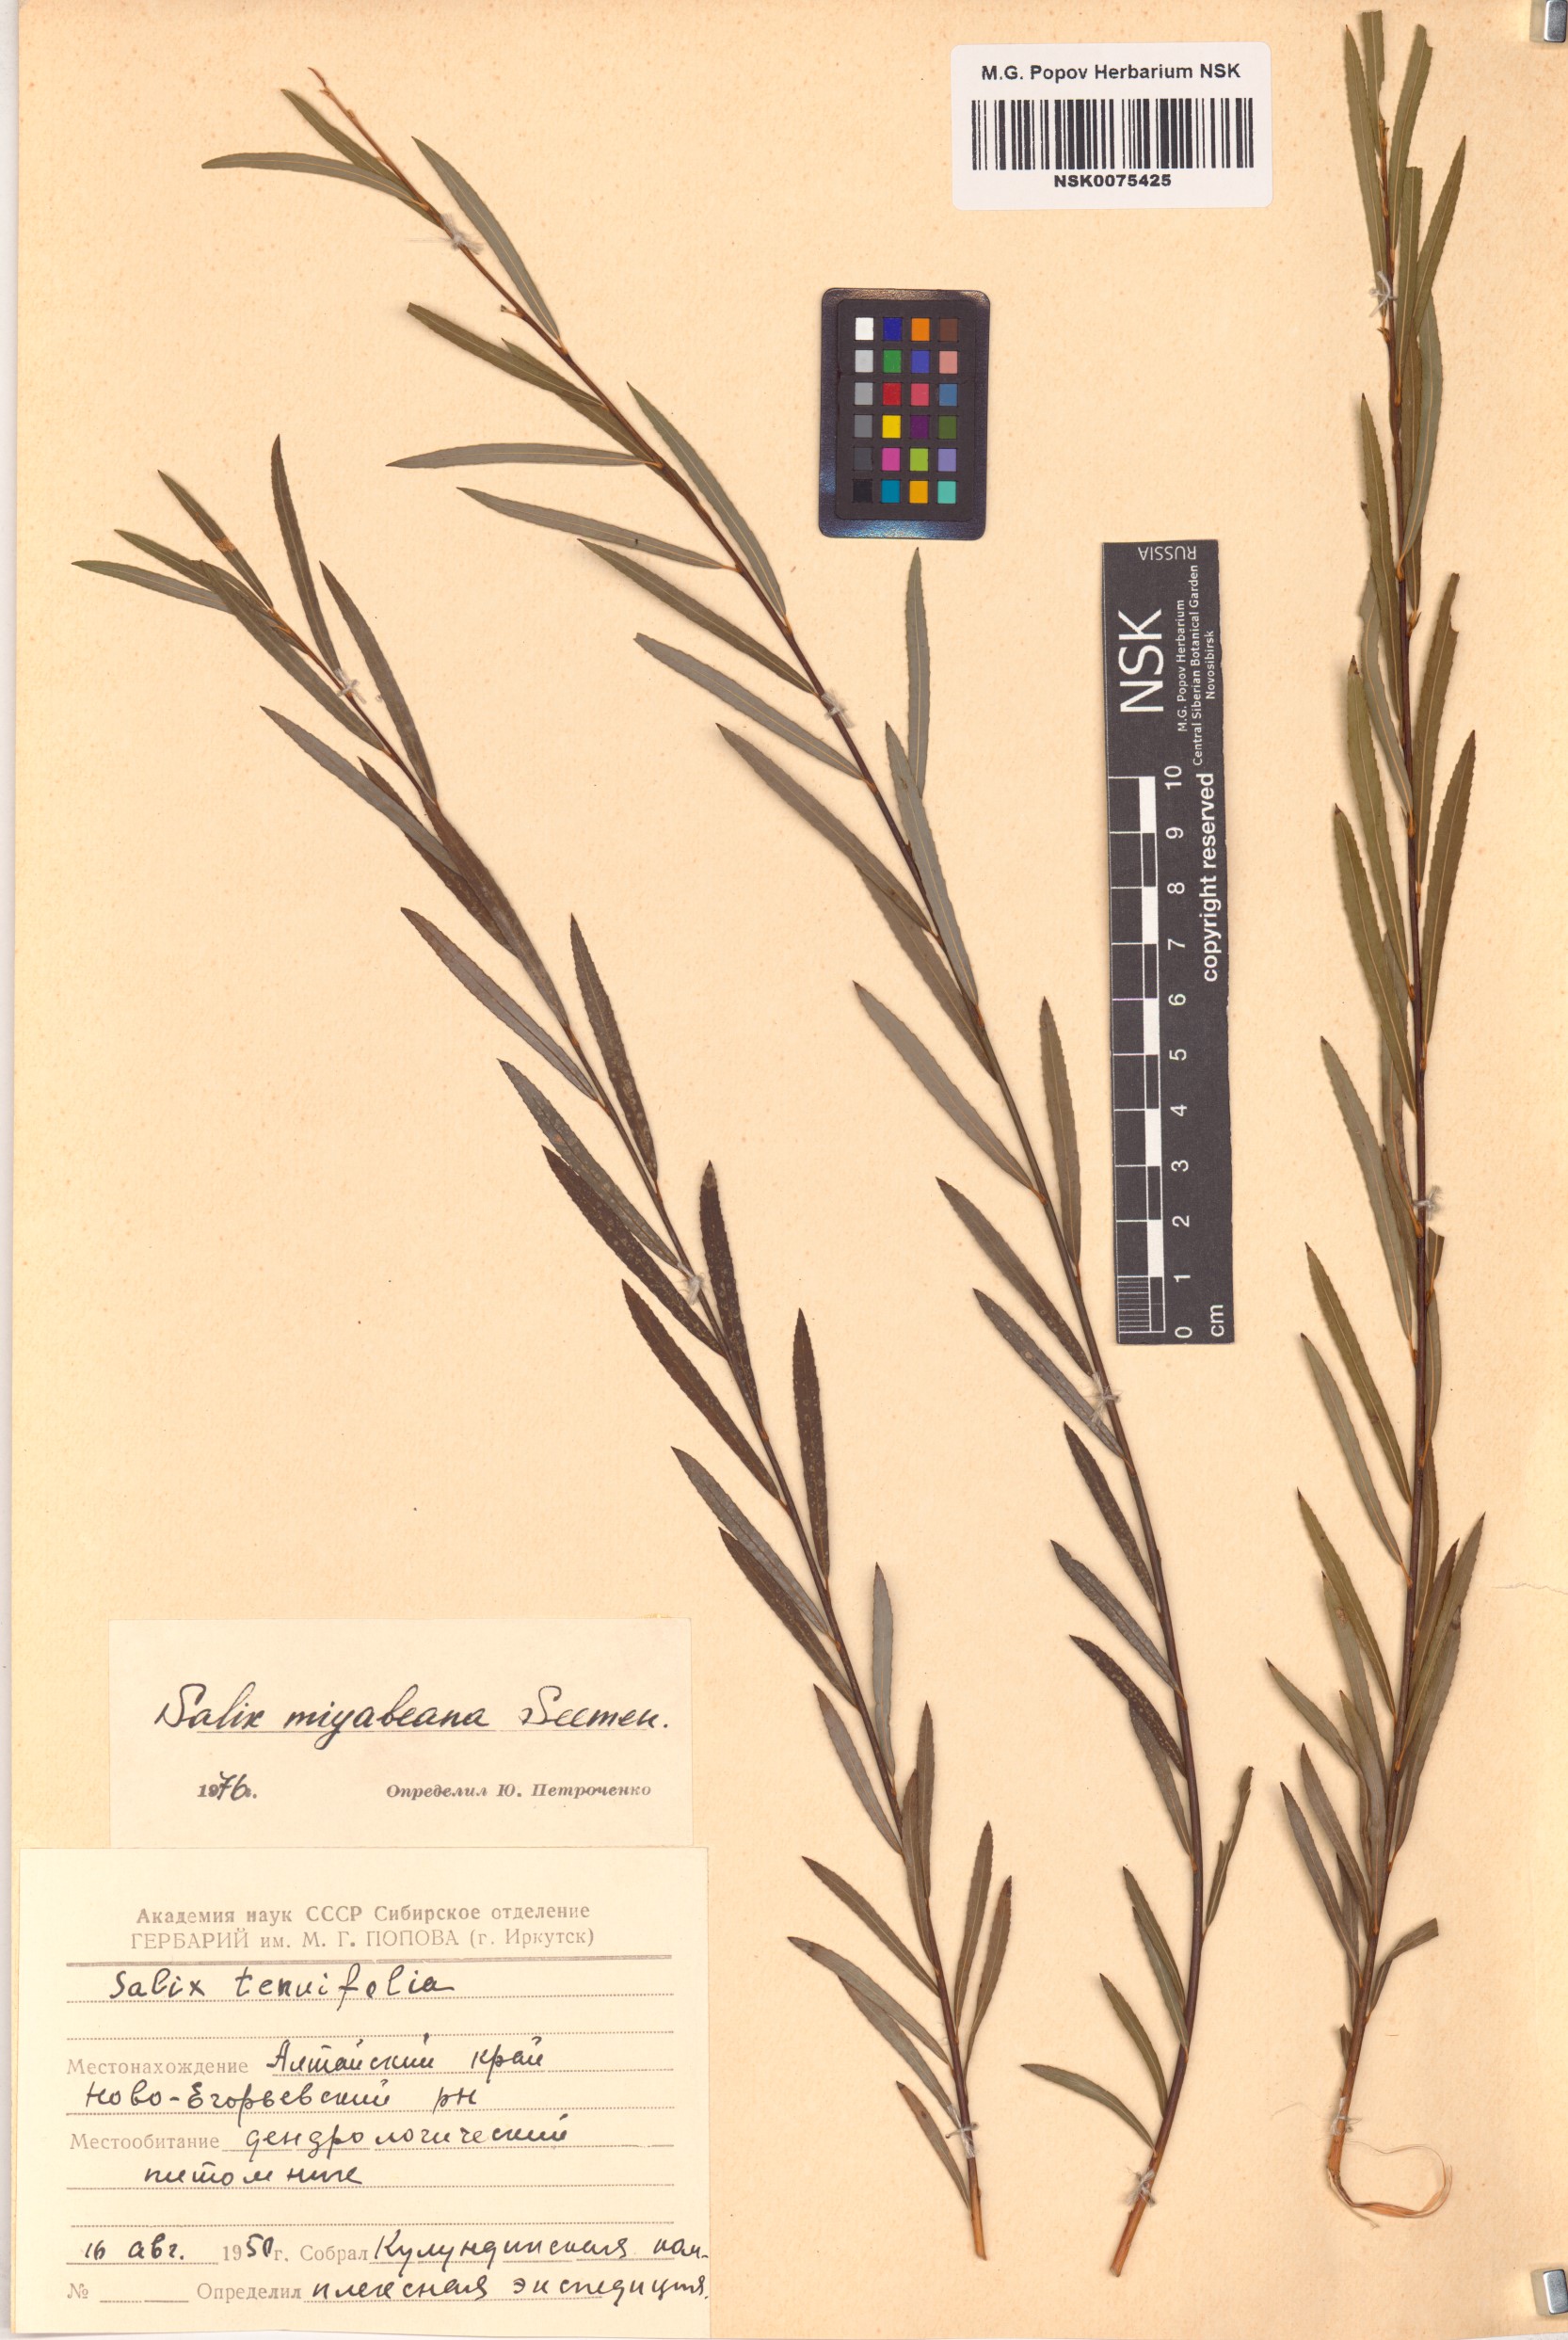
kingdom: Plantae
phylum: Tracheophyta
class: Magnoliopsida
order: Malpighiales
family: Salicaceae
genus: Salix
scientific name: Salix miyabeana
